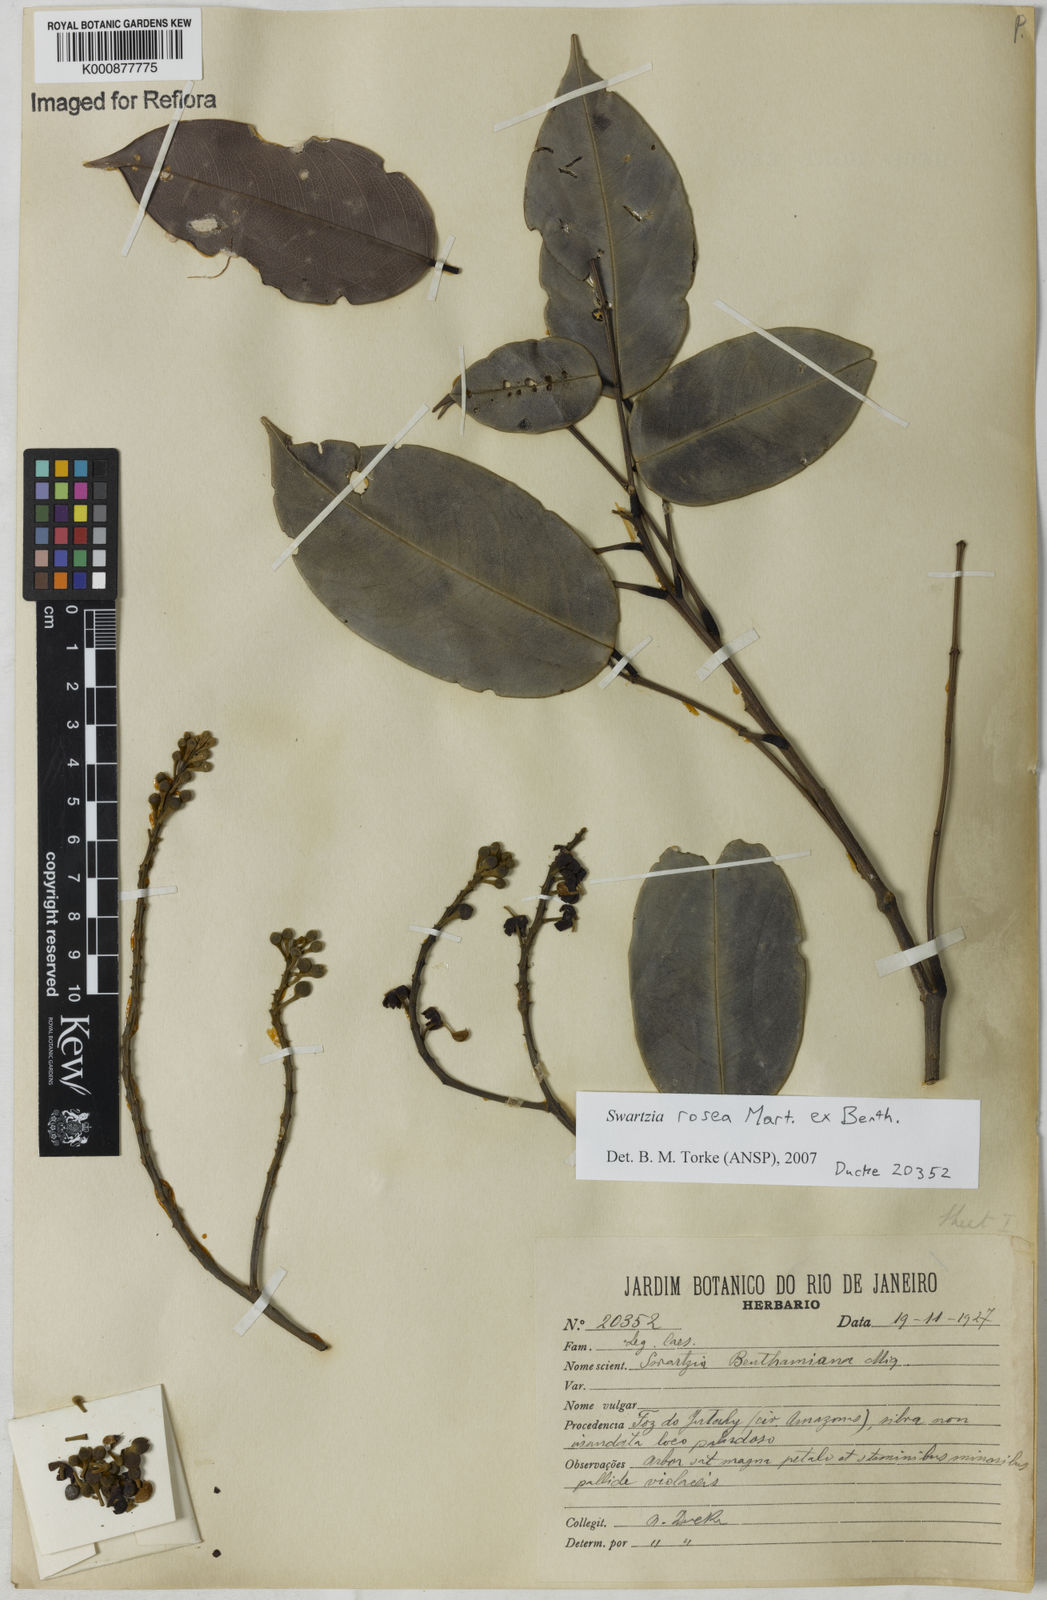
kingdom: Plantae
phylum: Tracheophyta
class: Magnoliopsida
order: Fabales
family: Fabaceae
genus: Swartzia
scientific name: Swartzia rosea
